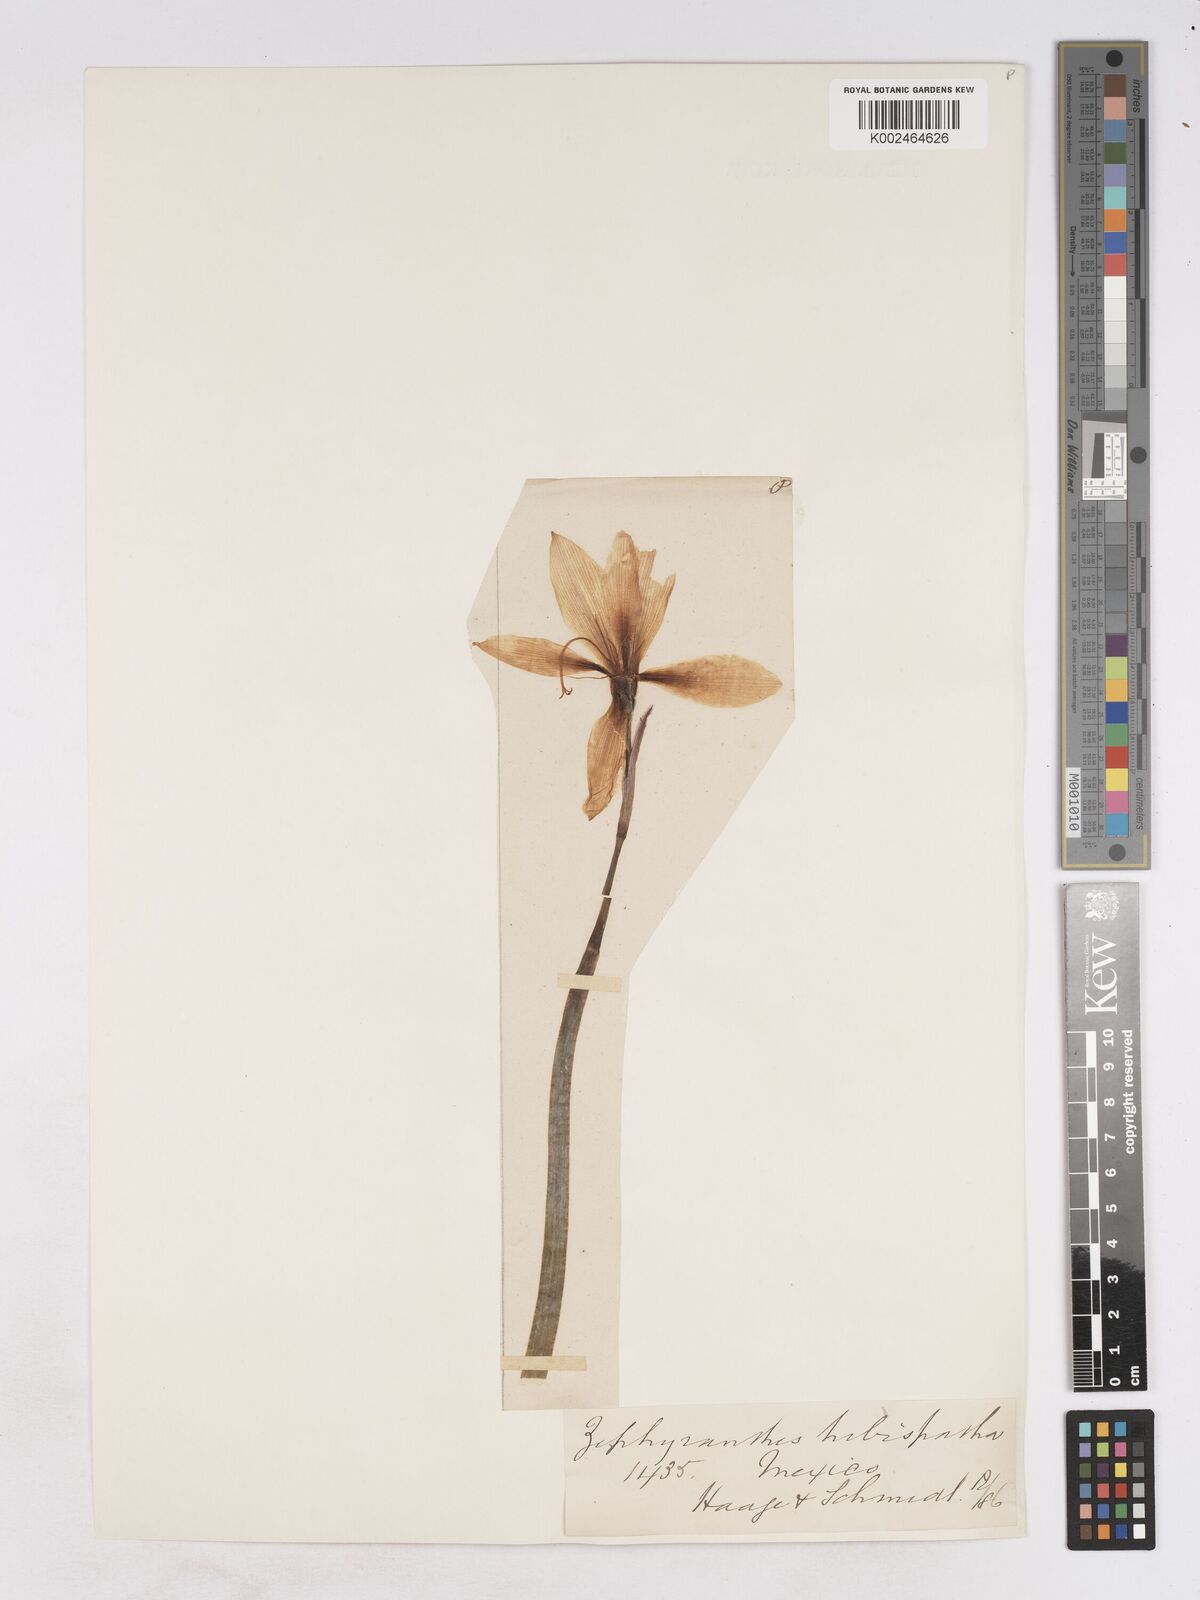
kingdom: Plantae
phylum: Tracheophyta
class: Liliopsida
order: Asparagales
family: Amaryllidaceae
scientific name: Amaryllidaceae
